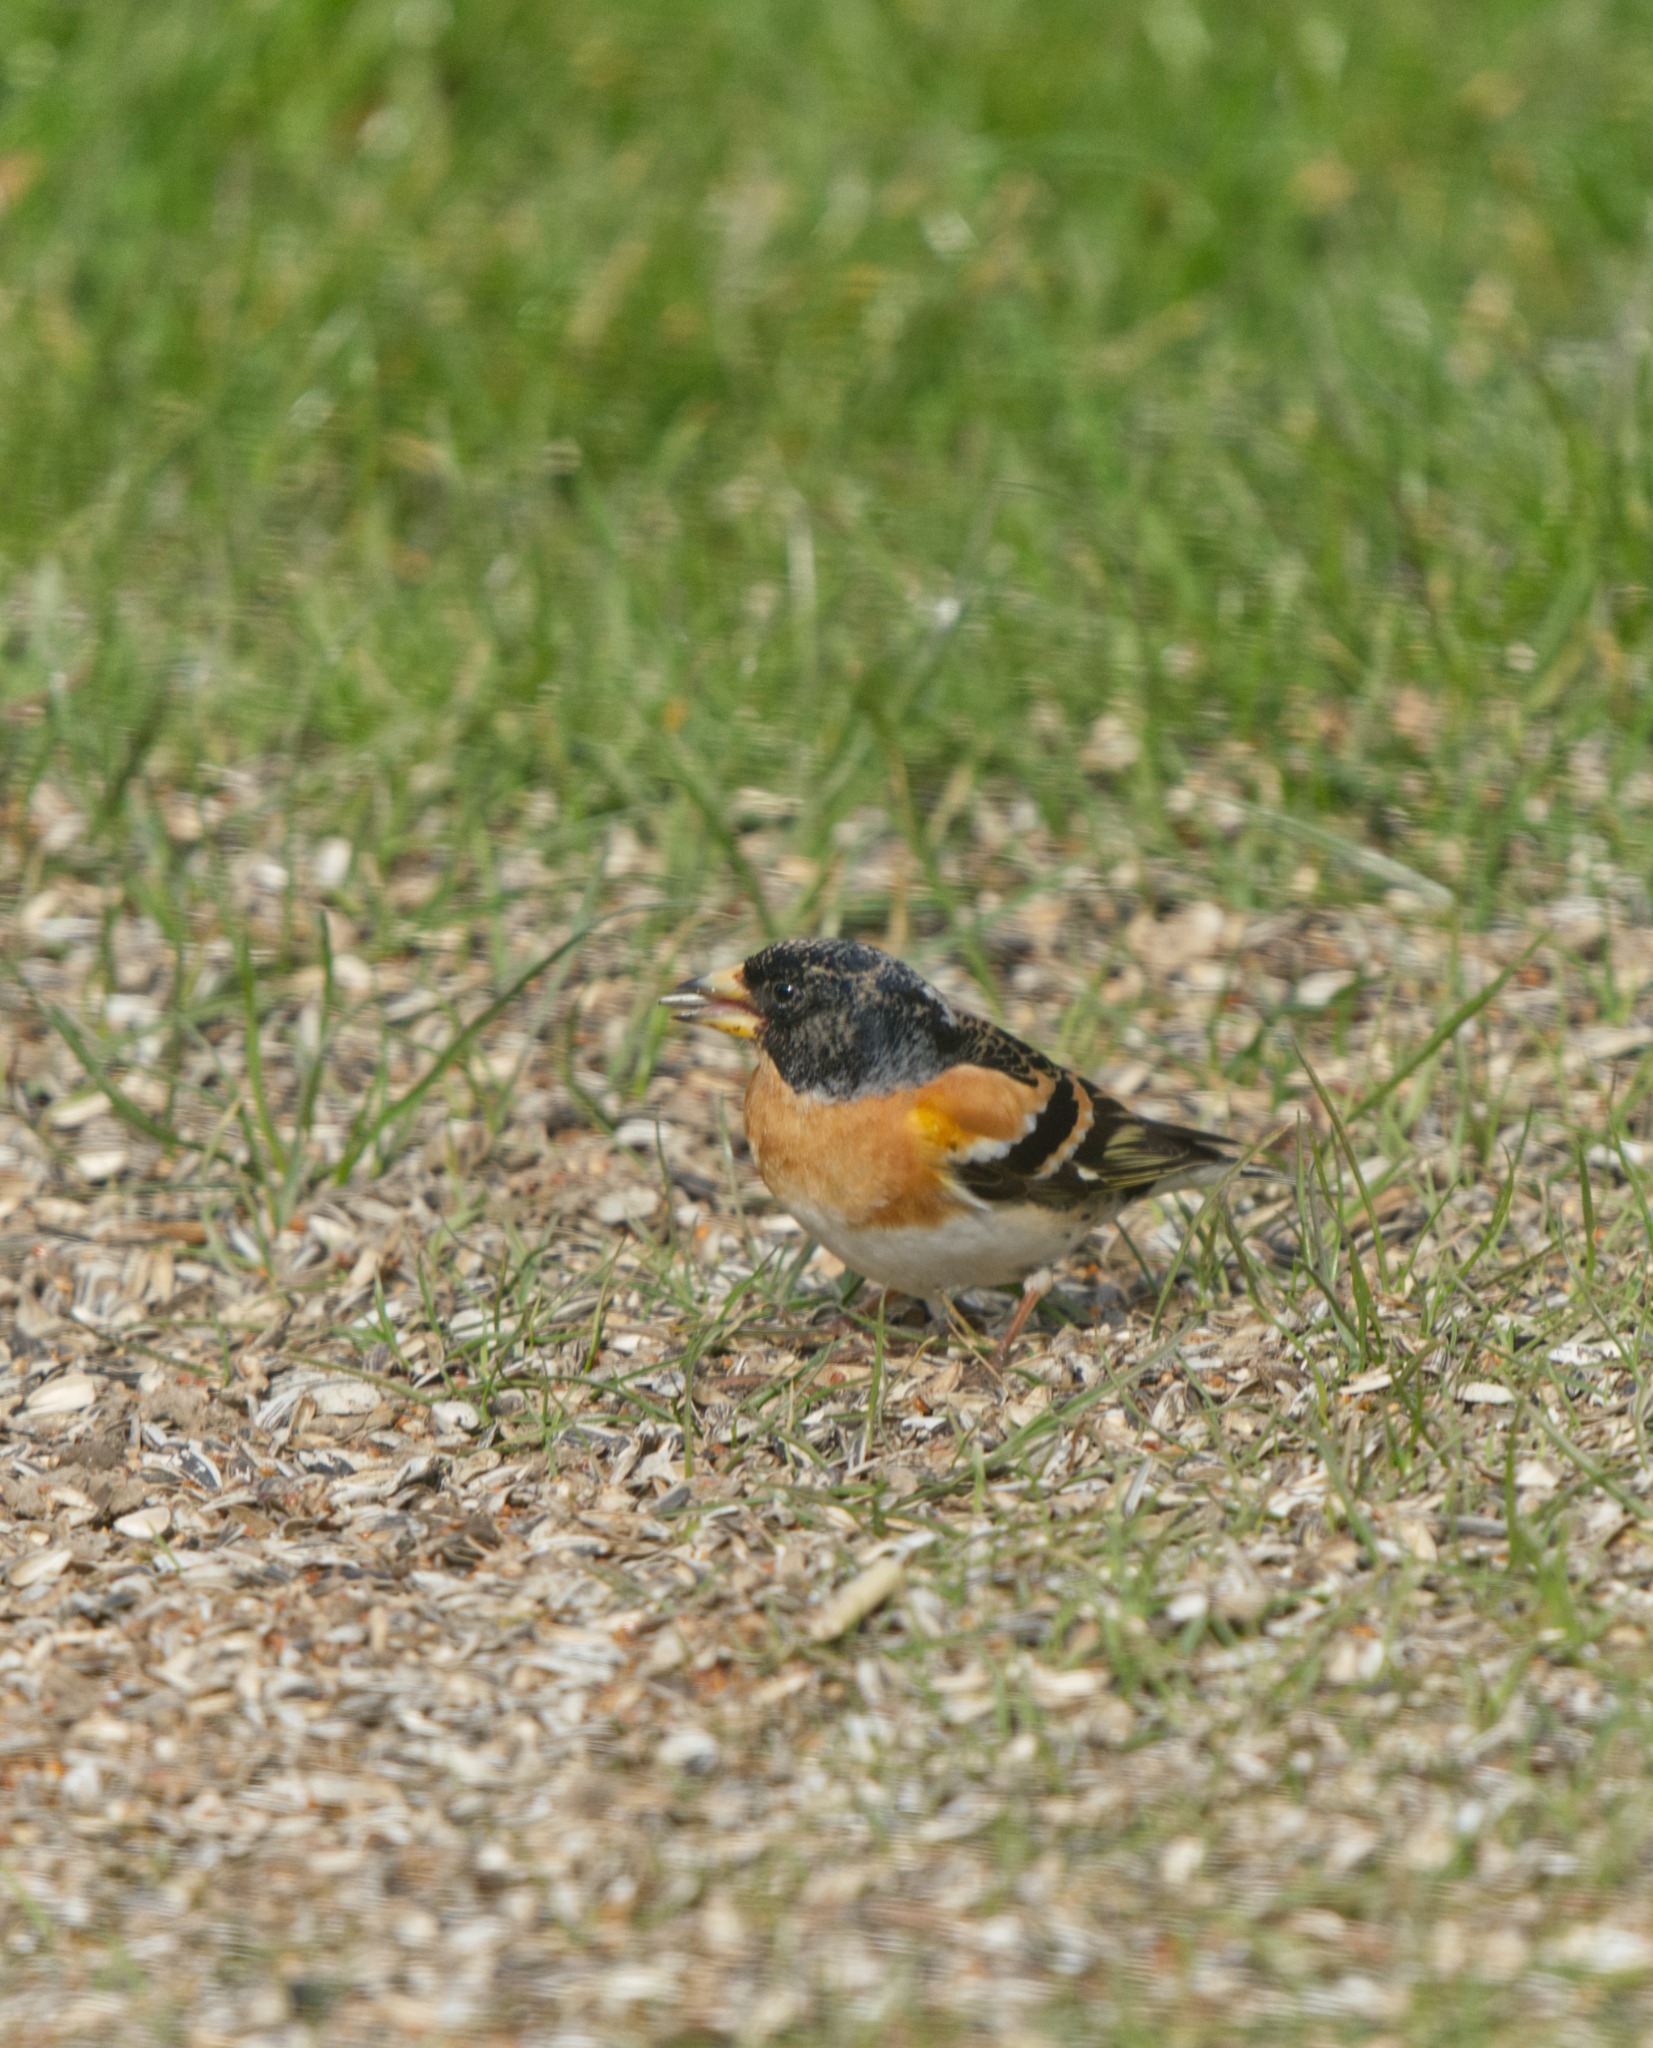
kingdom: Animalia
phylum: Chordata
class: Aves
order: Passeriformes
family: Fringillidae
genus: Fringilla
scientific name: Fringilla montifringilla
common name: Kvækerfinke
